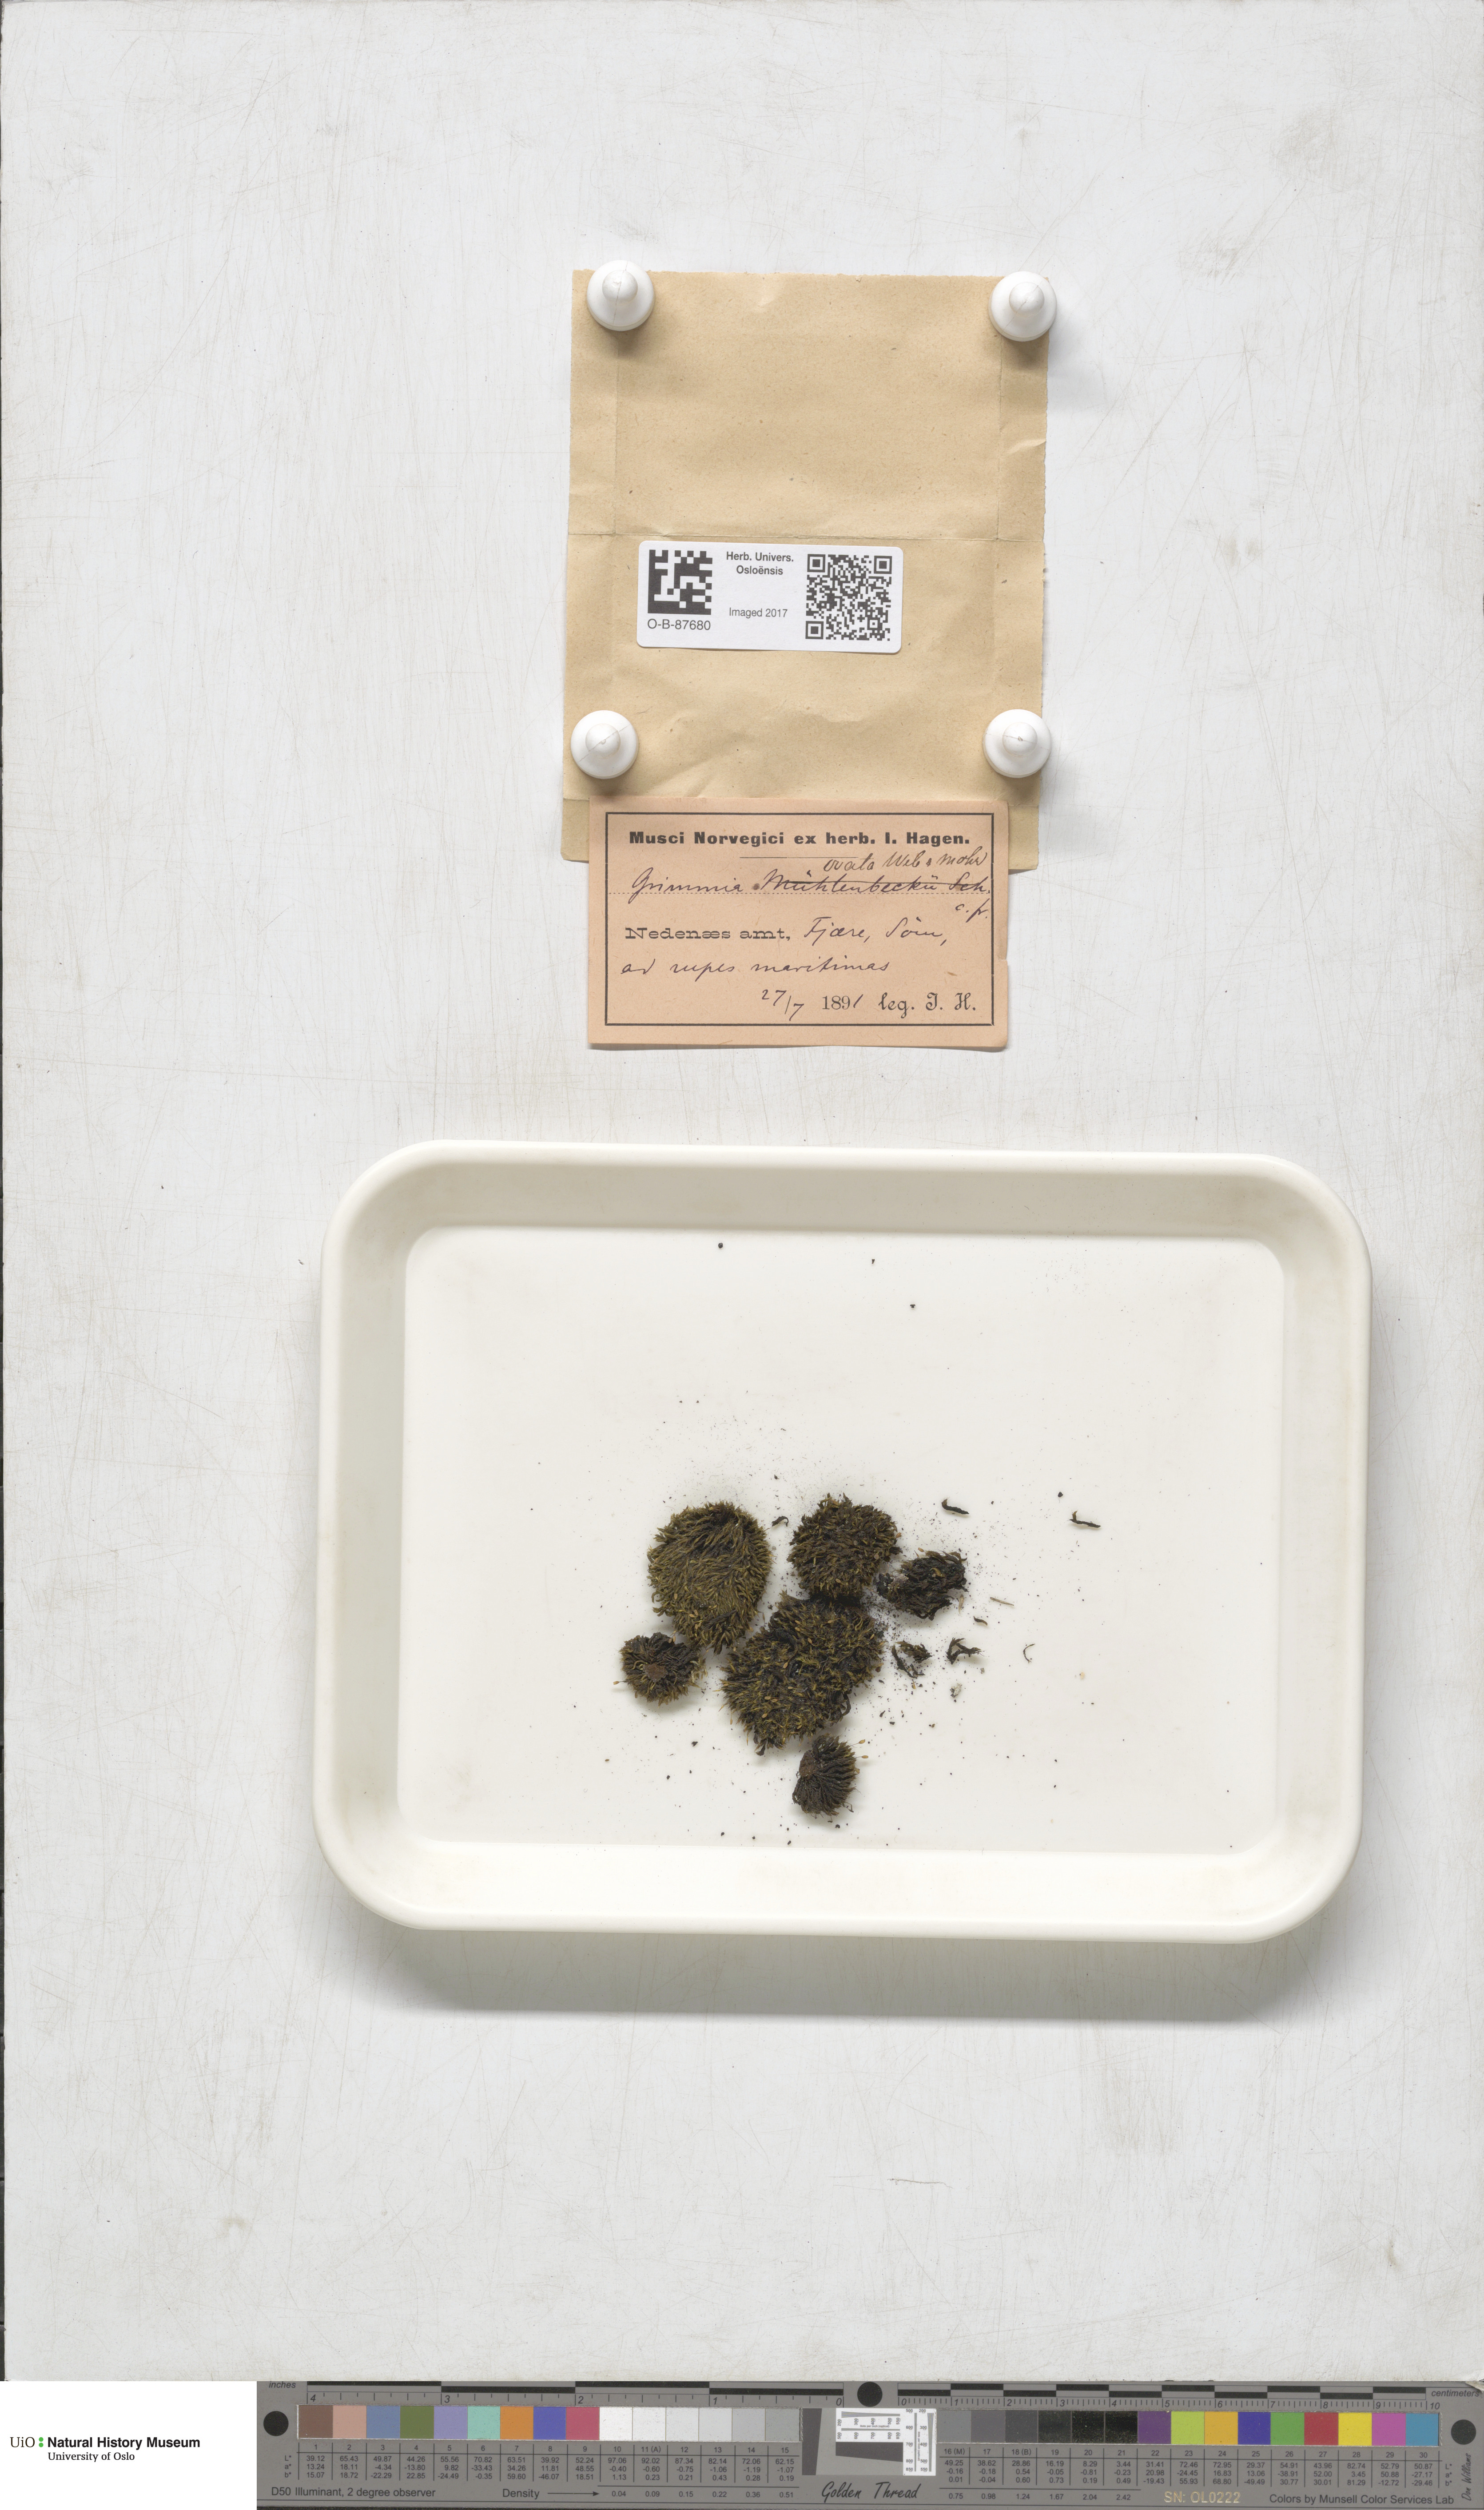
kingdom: Plantae
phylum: Bryophyta
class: Bryopsida
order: Grimmiales
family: Grimmiaceae
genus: Grimmia
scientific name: Grimmia ovalis
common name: Oval grimmia
